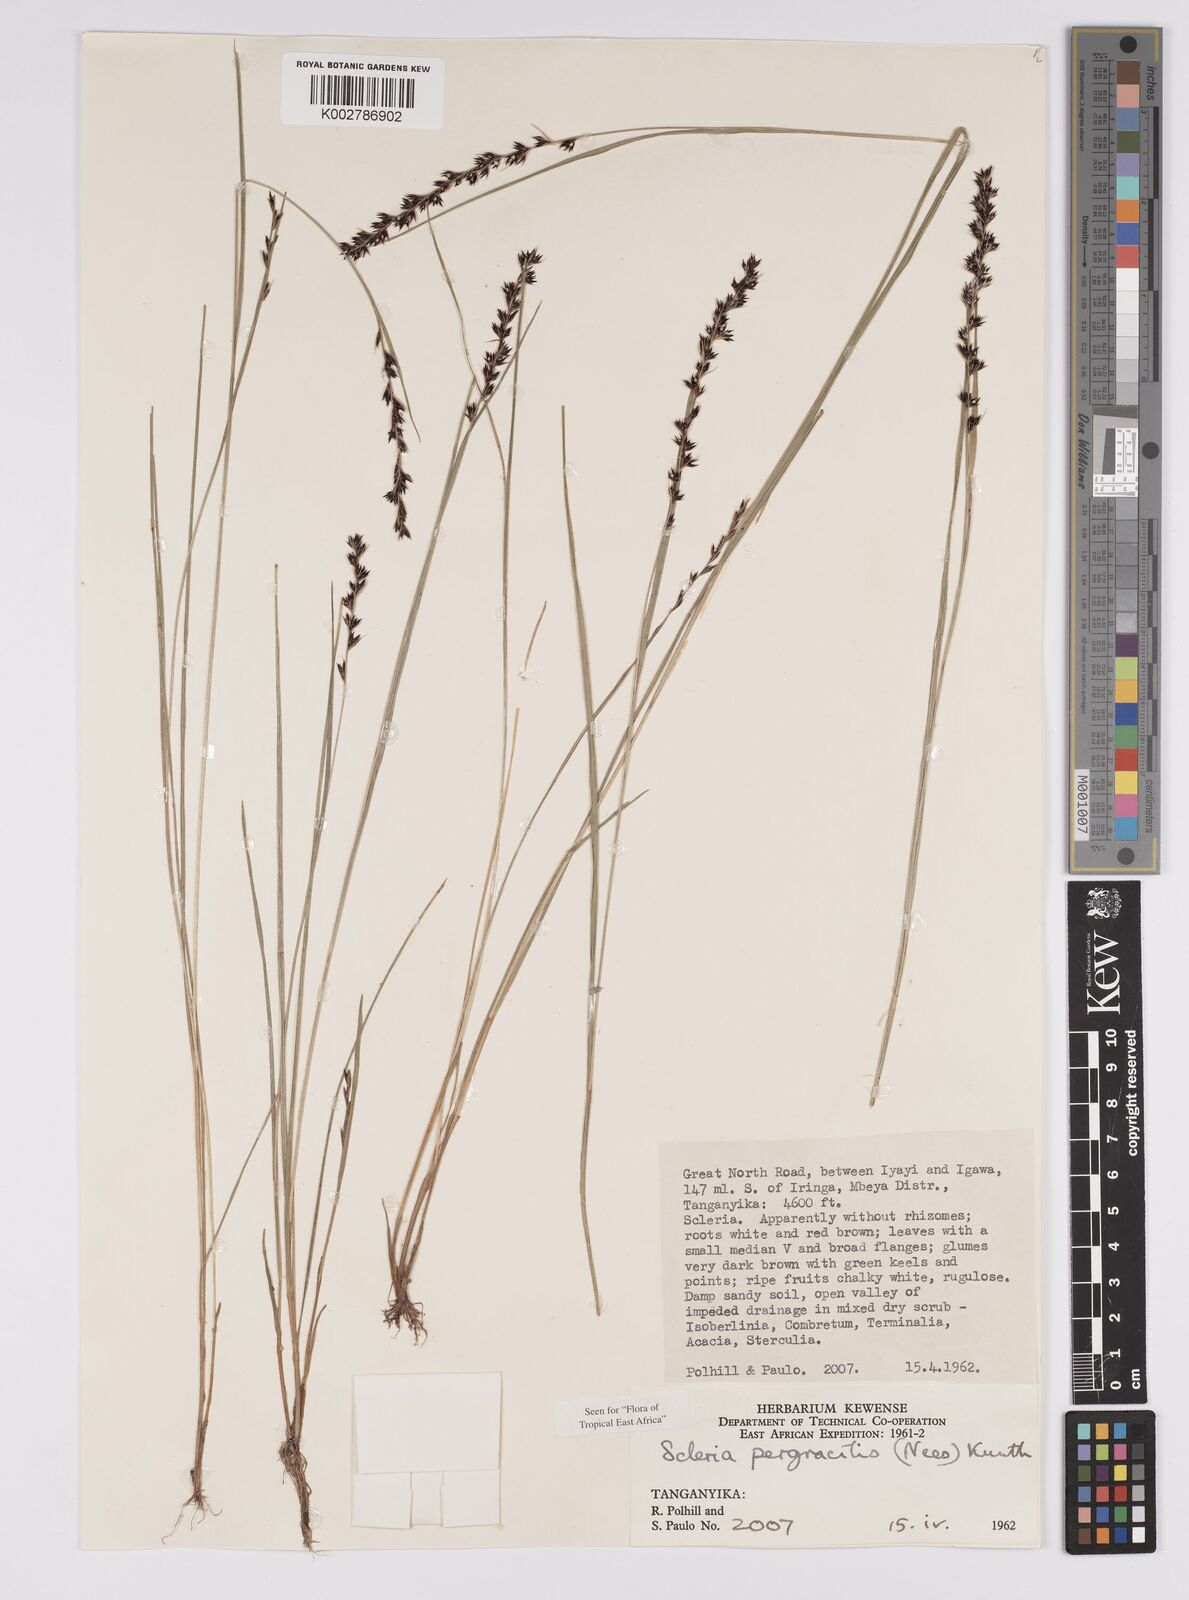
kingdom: Plantae
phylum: Tracheophyta
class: Liliopsida
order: Poales
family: Cyperaceae
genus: Scleria
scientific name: Scleria pergracilis
